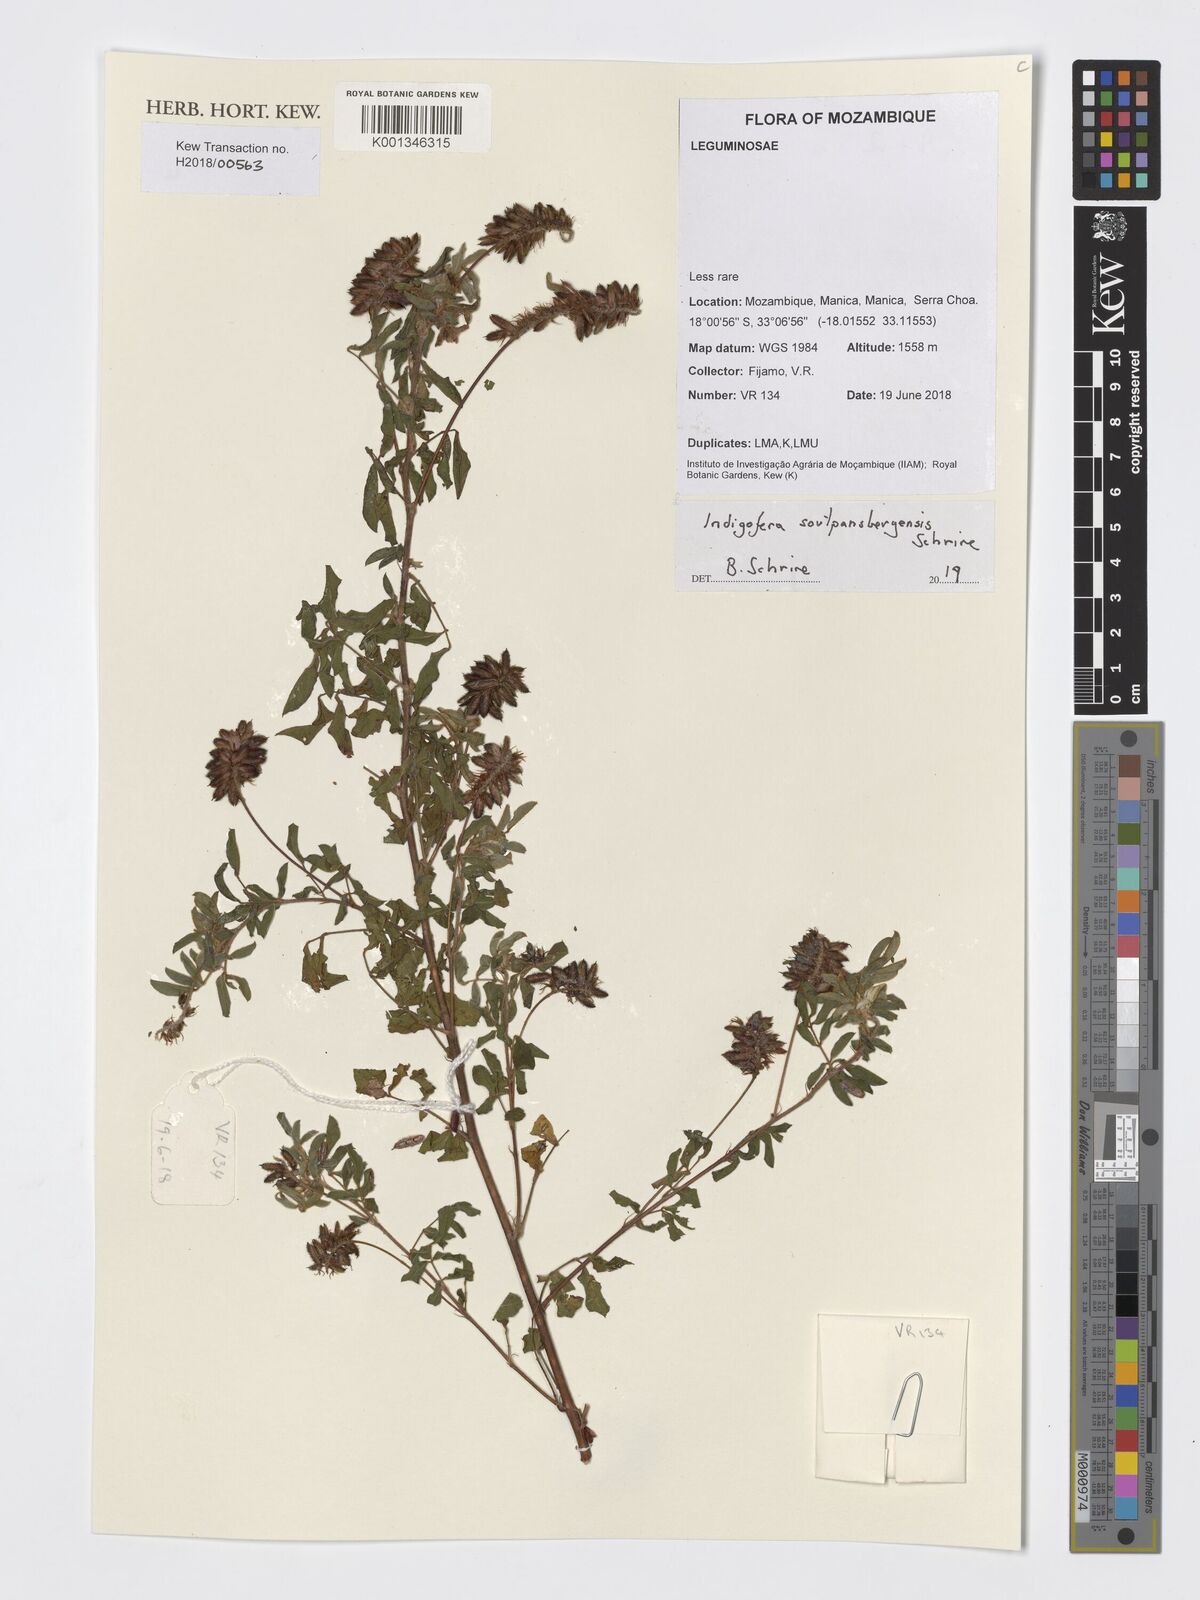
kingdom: Plantae
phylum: Tracheophyta
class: Magnoliopsida
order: Fabales
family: Fabaceae
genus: Indigofera
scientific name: Indigofera soutpansbergensis
